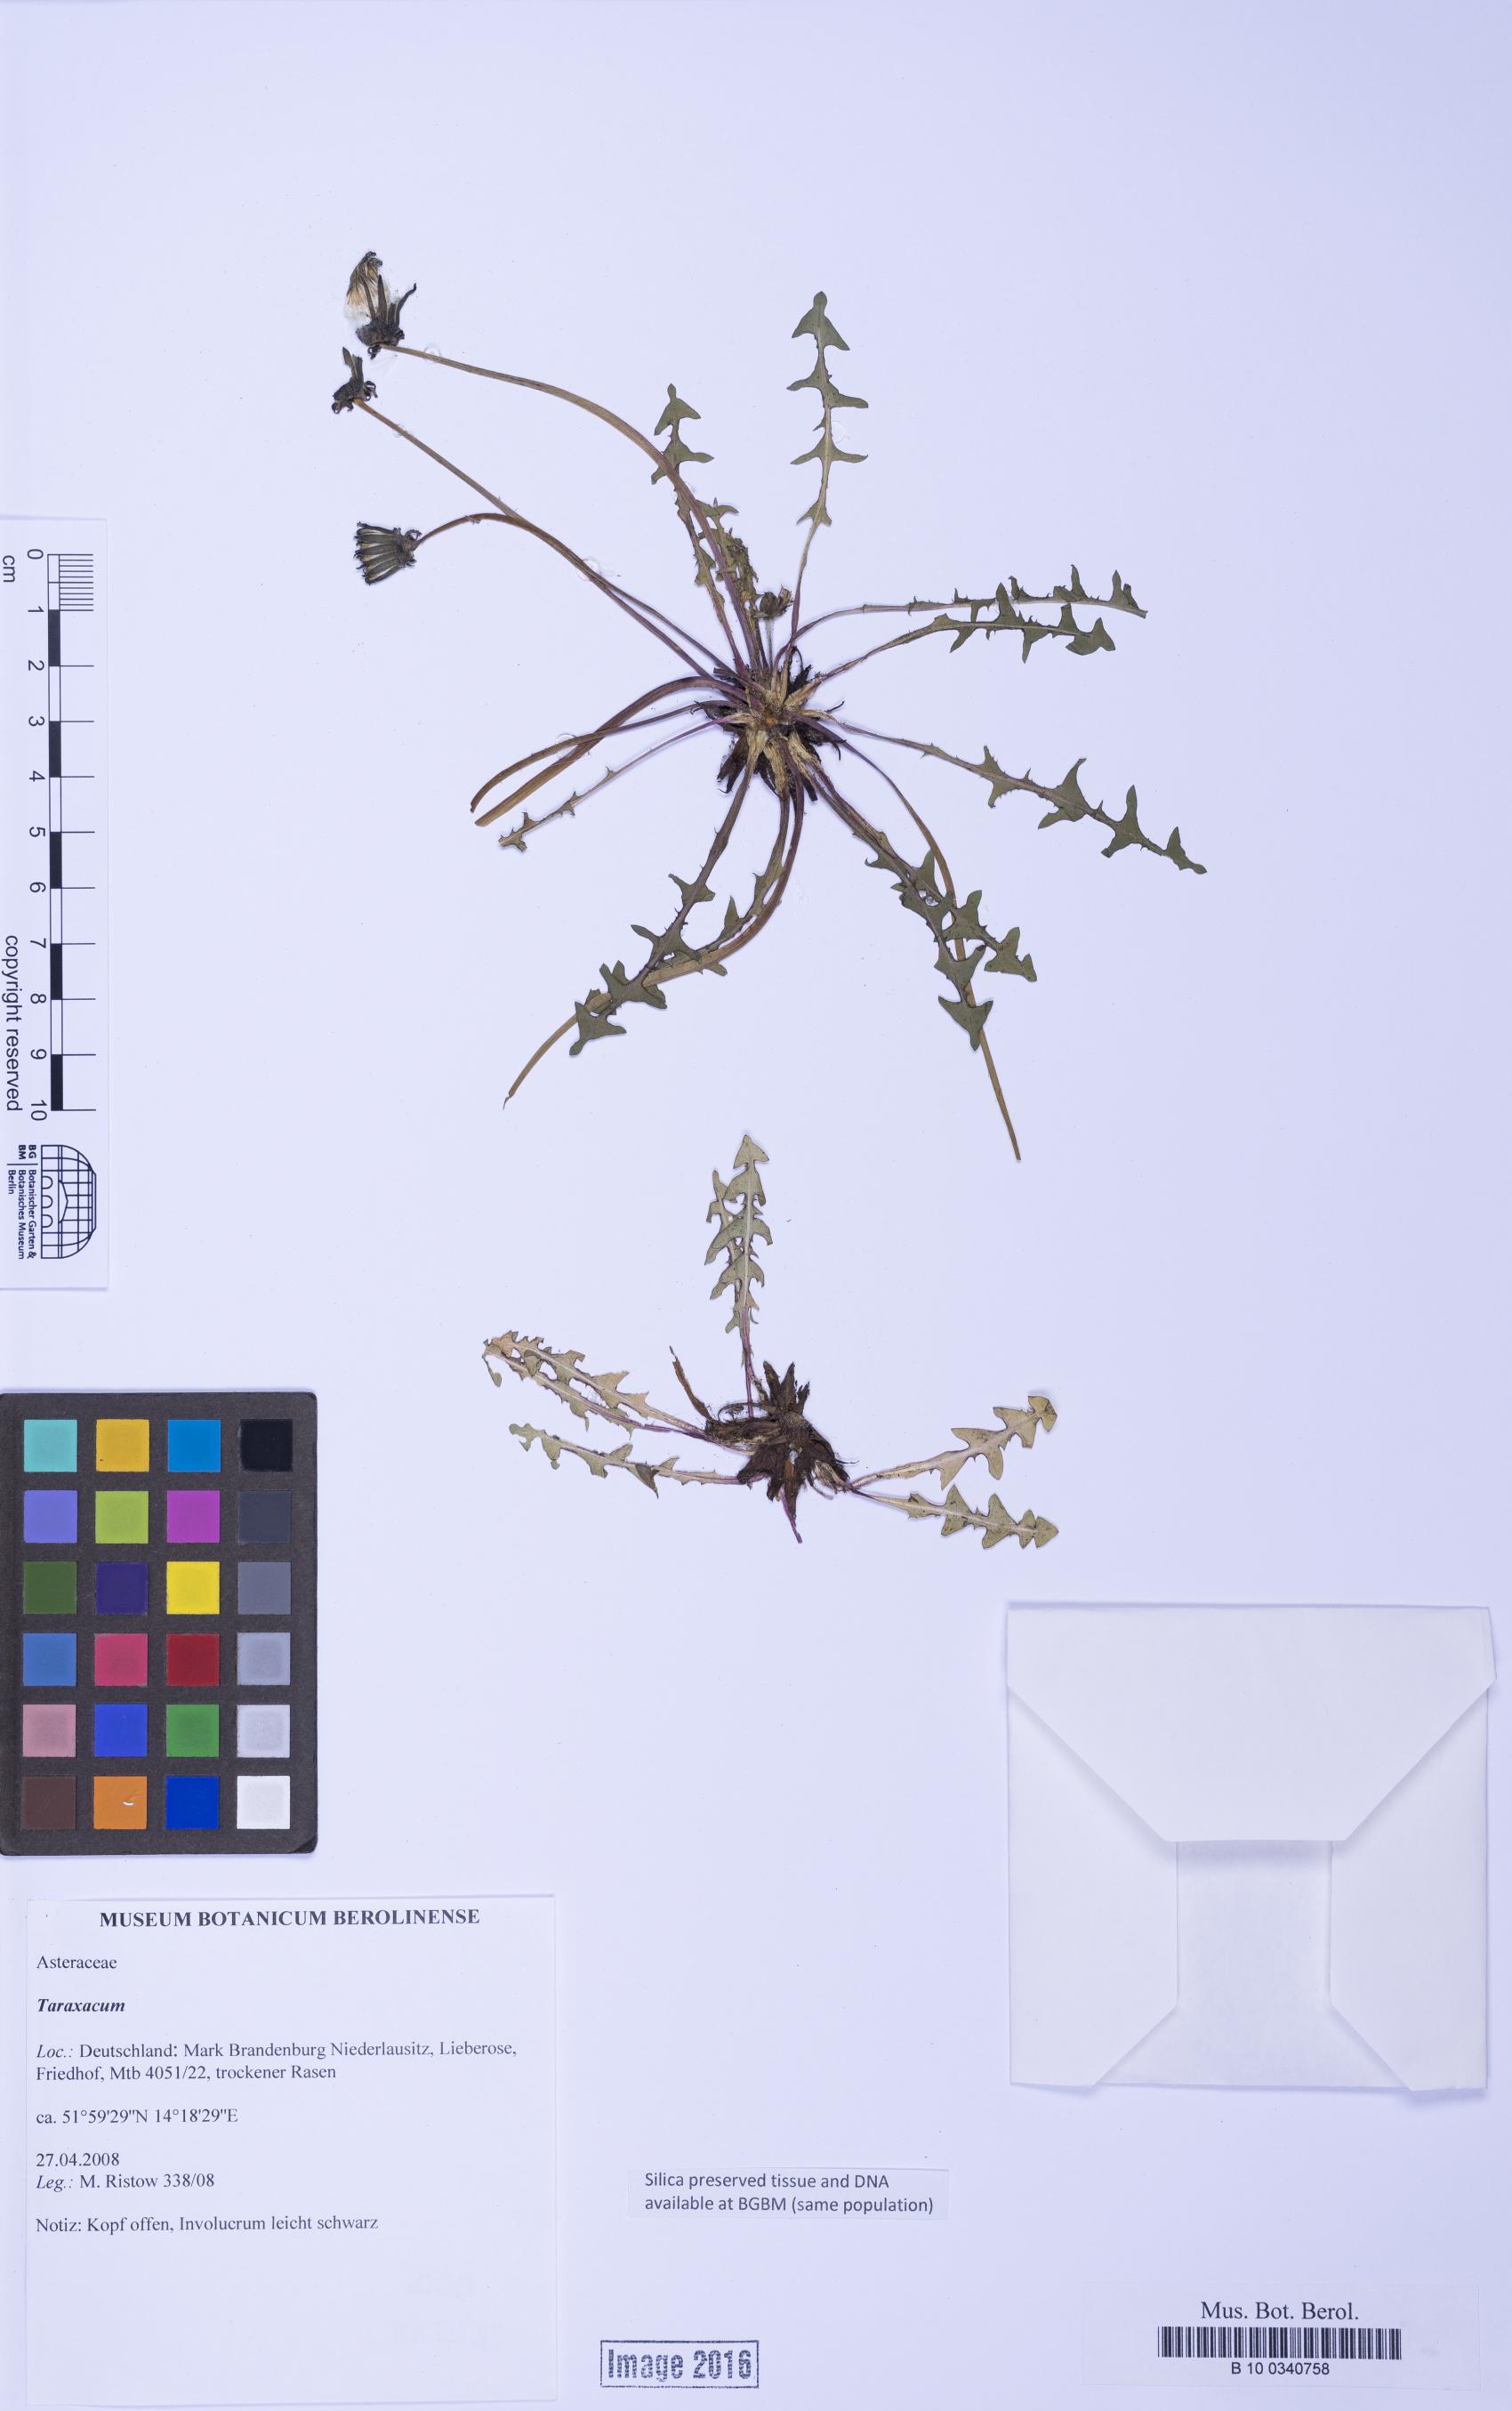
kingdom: Plantae
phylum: Tracheophyta
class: Magnoliopsida
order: Asterales
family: Asteraceae
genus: Taraxacum
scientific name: Taraxacum
